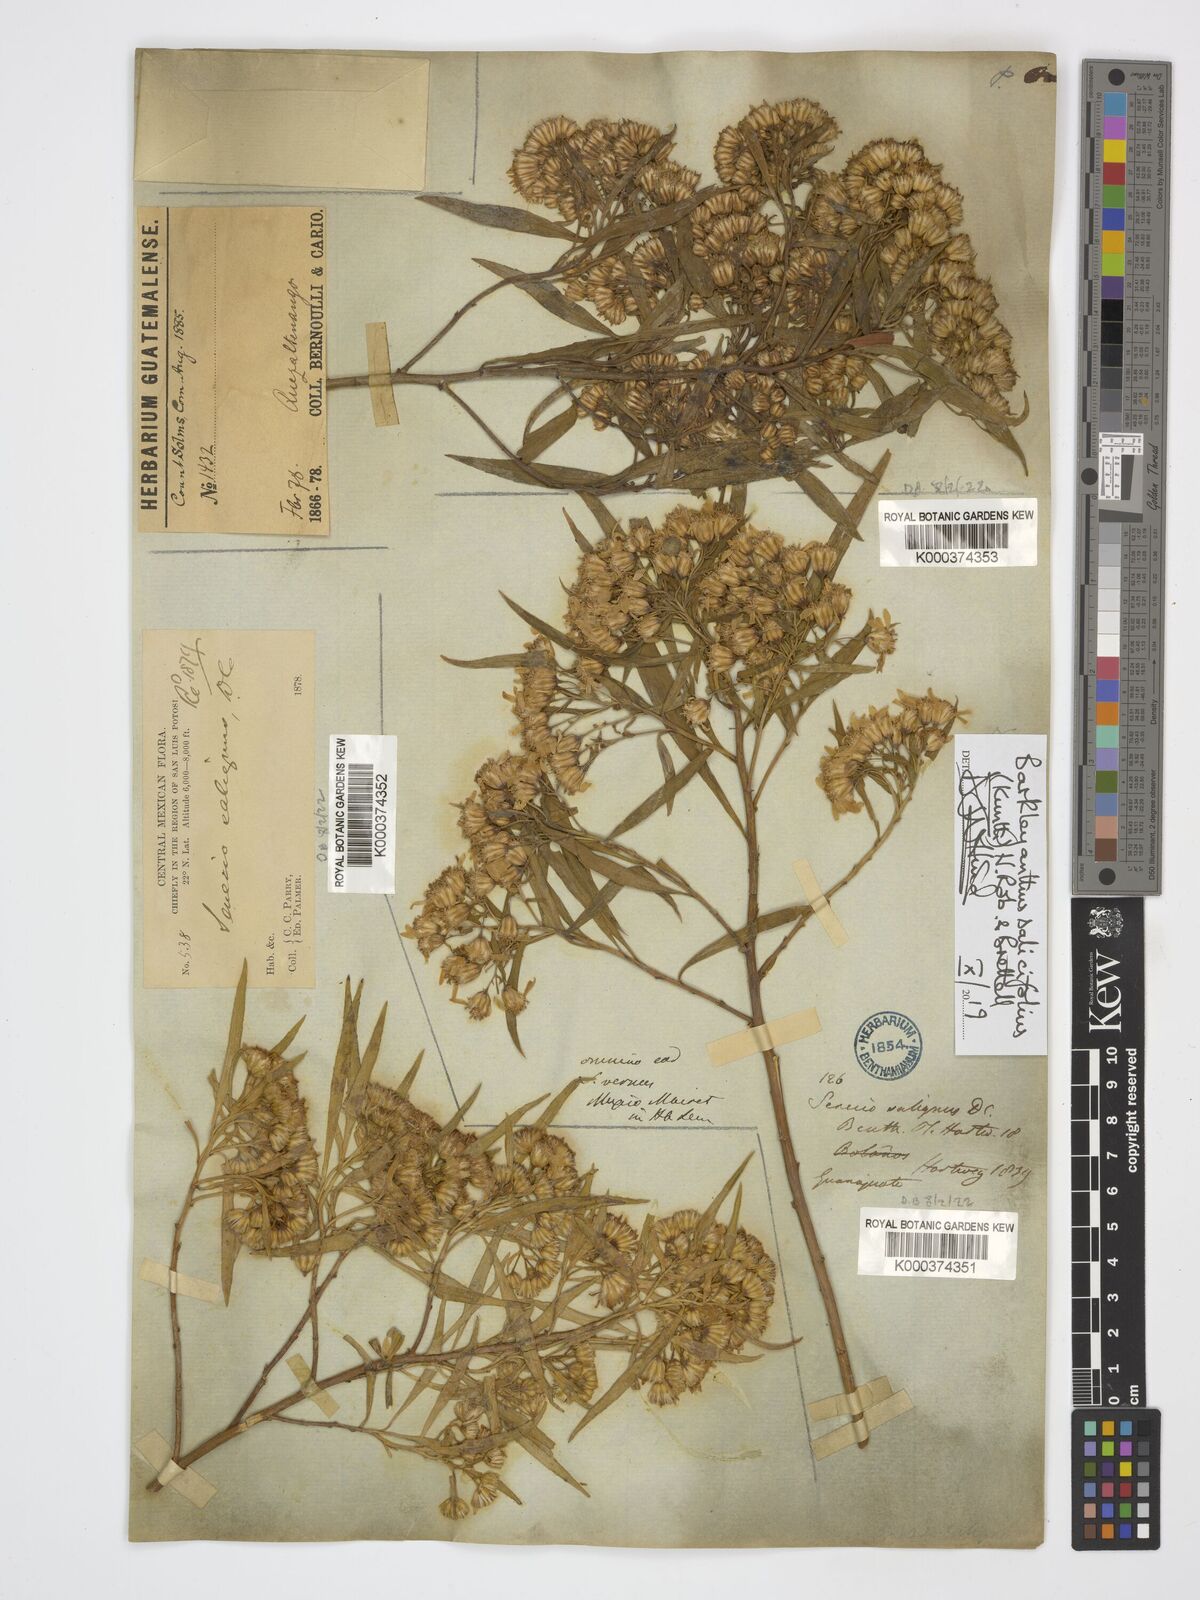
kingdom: Plantae
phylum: Tracheophyta
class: Magnoliopsida
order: Asterales
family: Asteraceae
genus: Barkleyanthus
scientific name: Barkleyanthus salicifolius
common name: Willow ragwort
